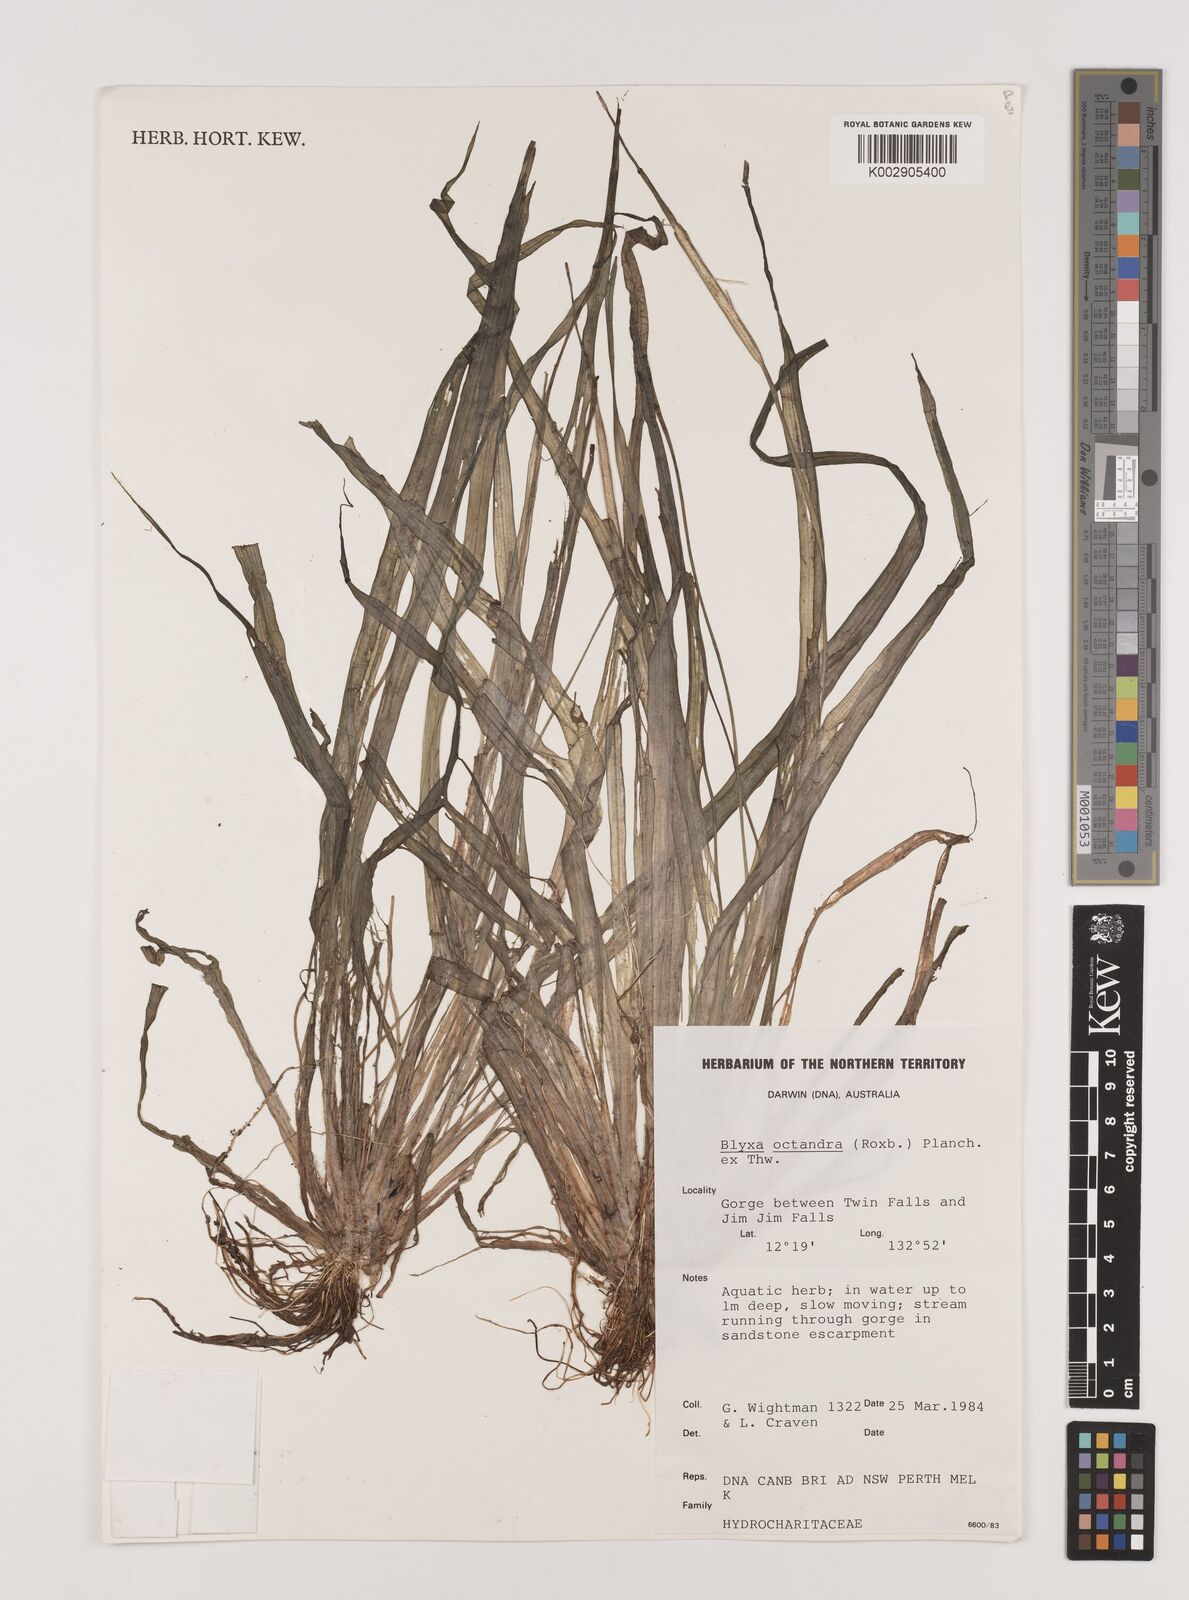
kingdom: Plantae
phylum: Tracheophyta
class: Liliopsida
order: Alismatales
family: Hydrocharitaceae
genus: Blyxa
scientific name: Blyxa octandra
